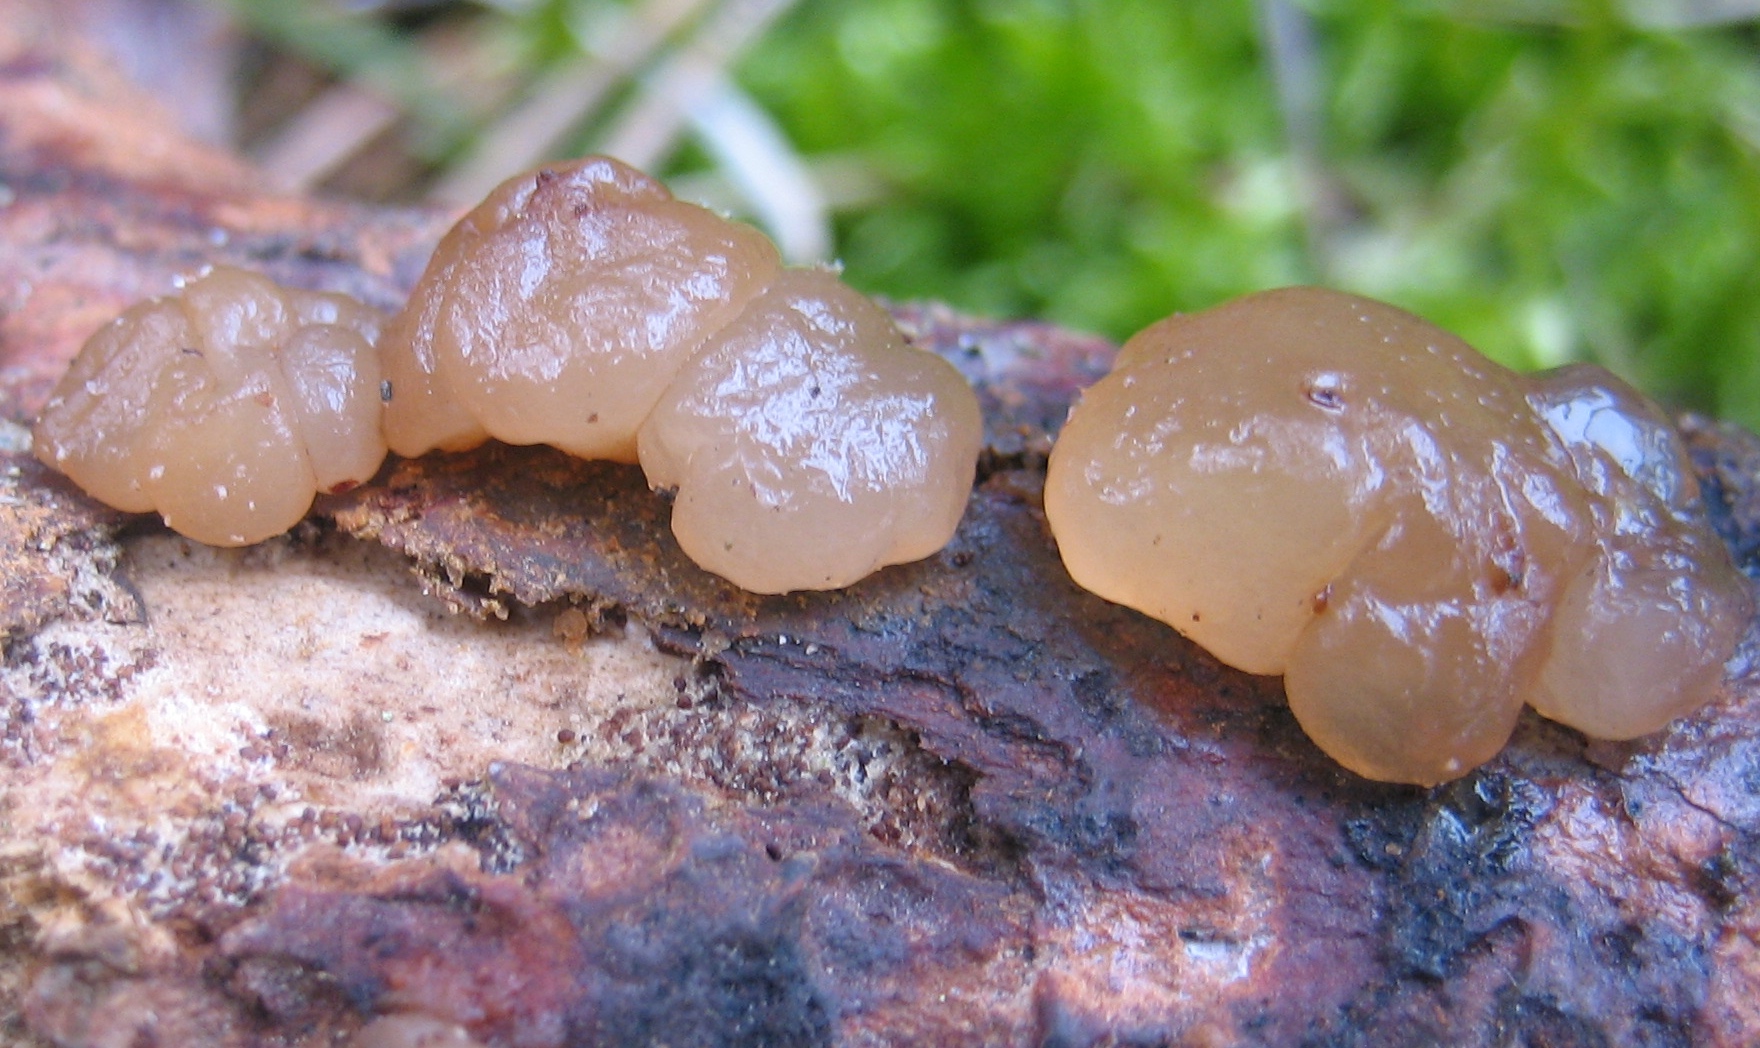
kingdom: Fungi
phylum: Basidiomycota
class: Agaricomycetes
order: Auriculariales
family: Auriculariaceae
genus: Exidia
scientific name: Exidia saccharina
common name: kandis-bævretop
